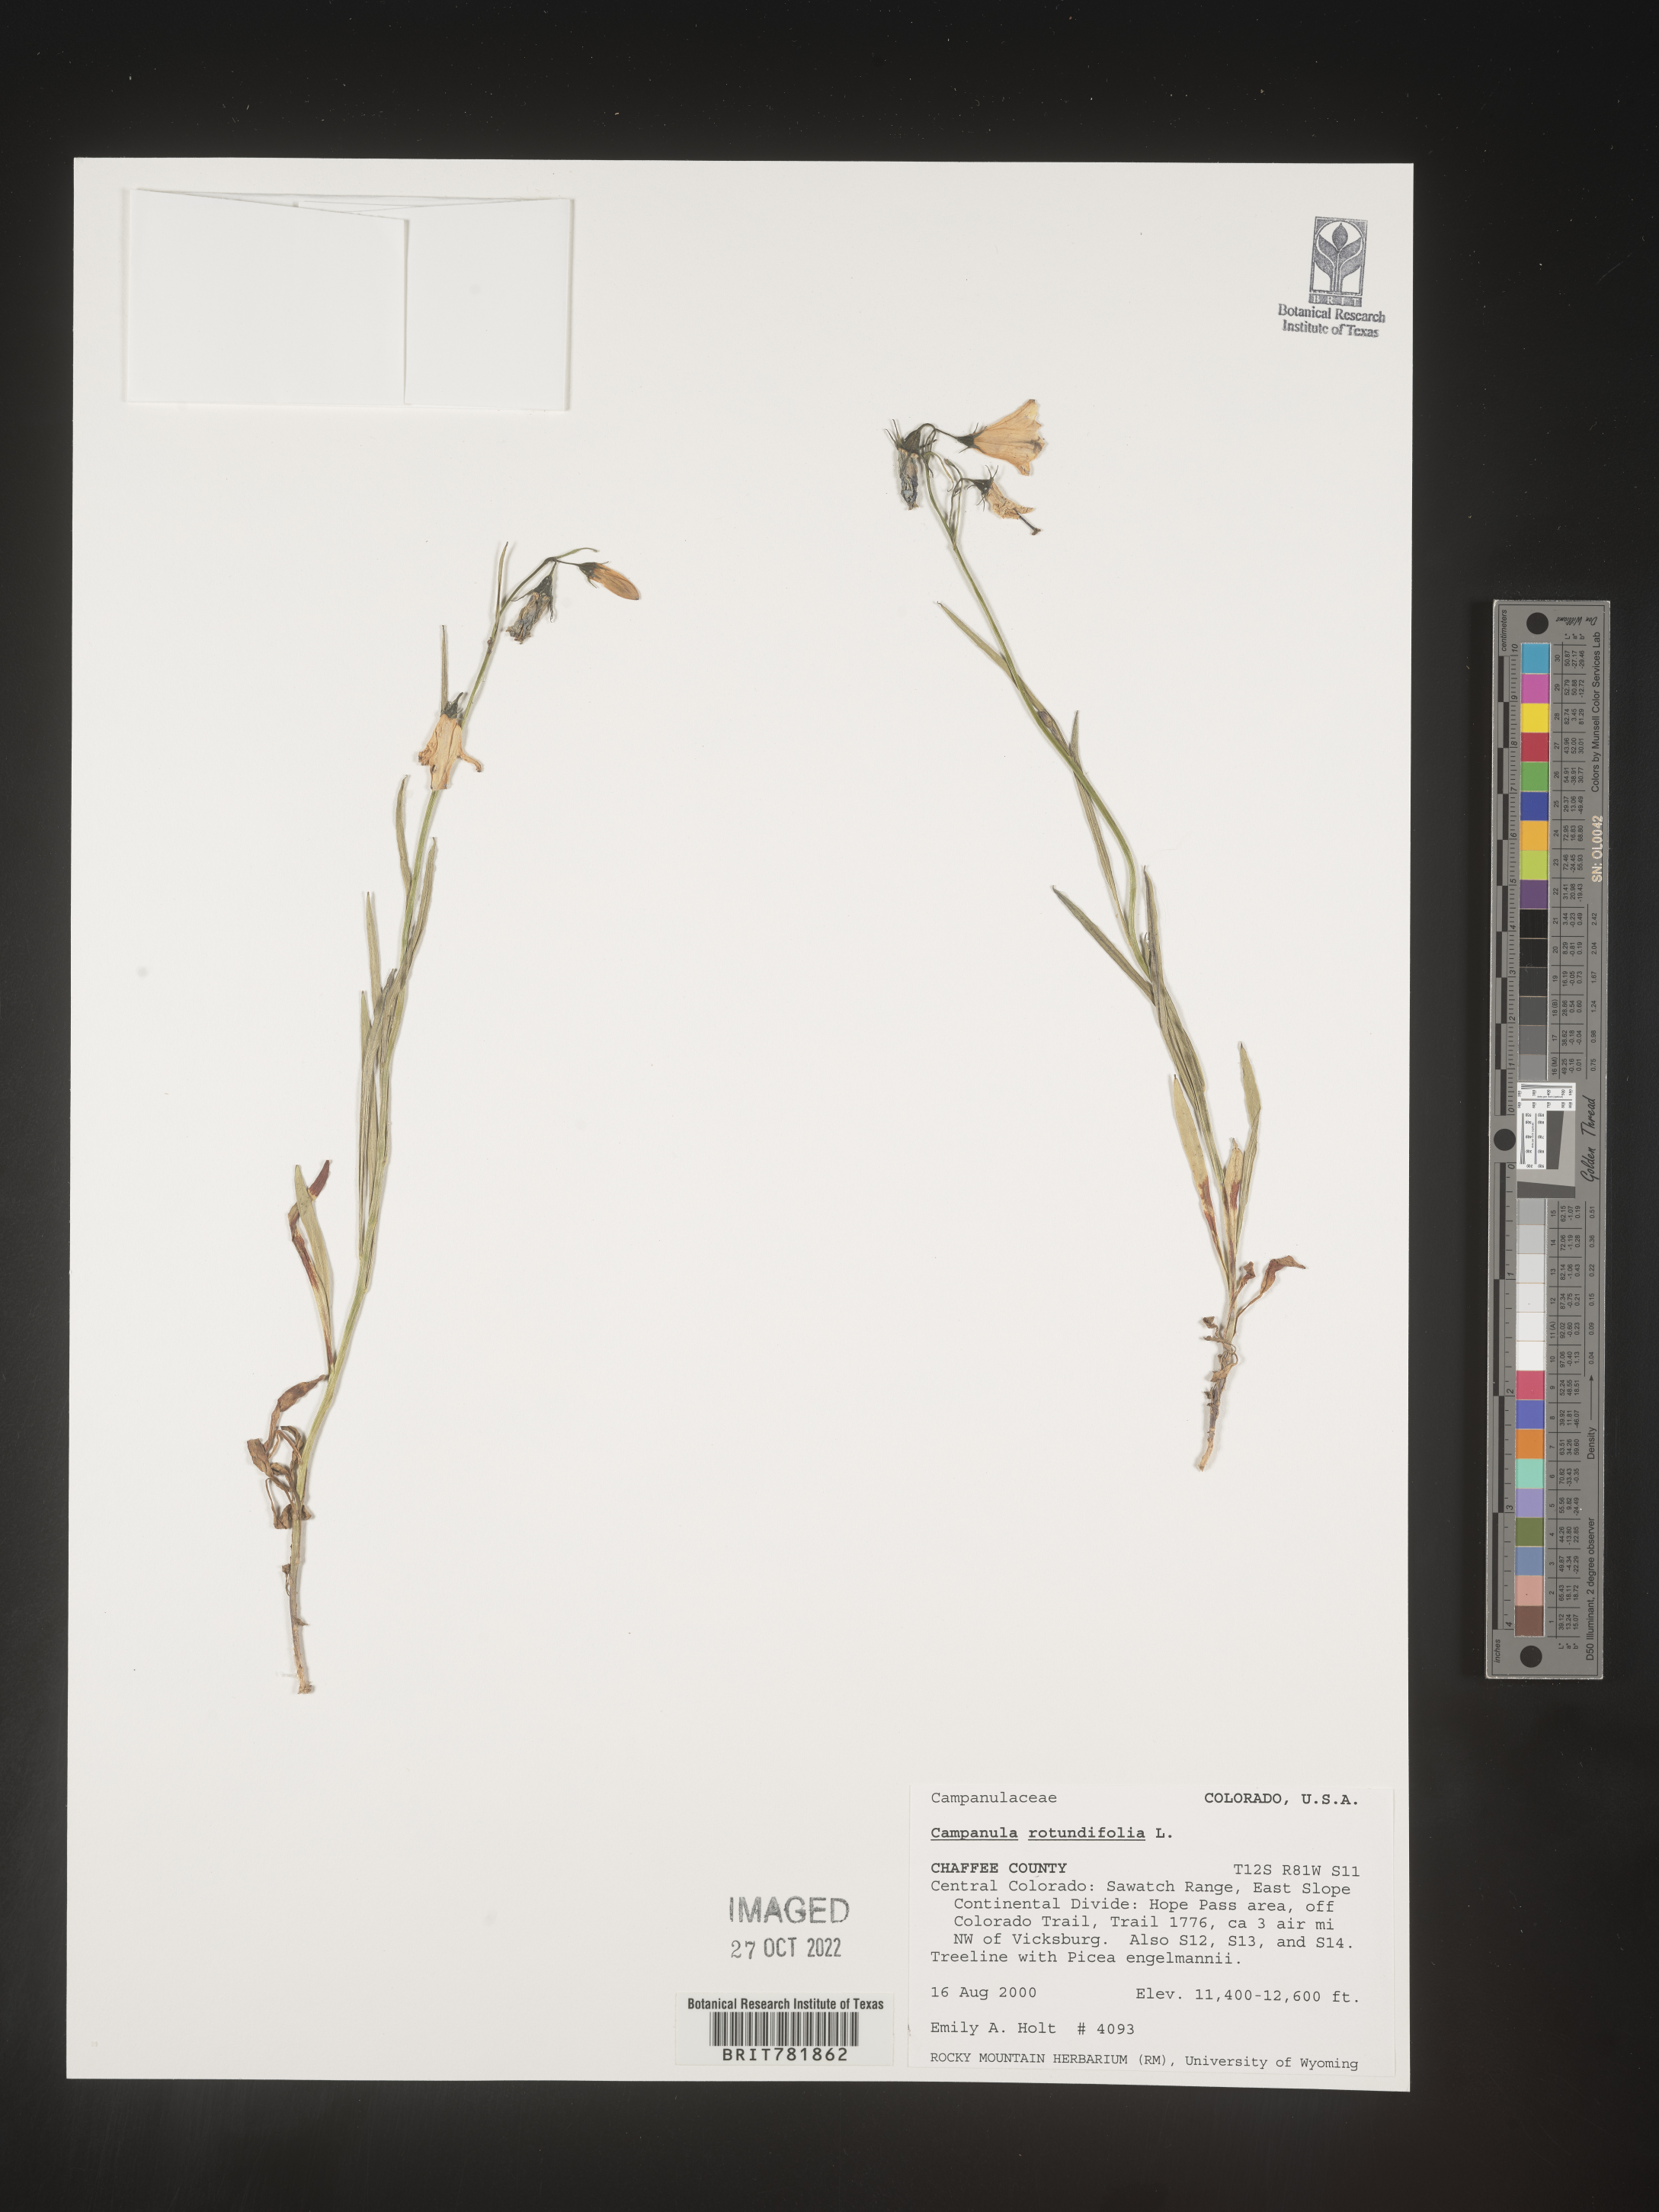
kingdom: Plantae
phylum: Tracheophyta
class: Magnoliopsida
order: Asterales
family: Campanulaceae
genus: Campanula
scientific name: Campanula rotundifolia
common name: Harebell
